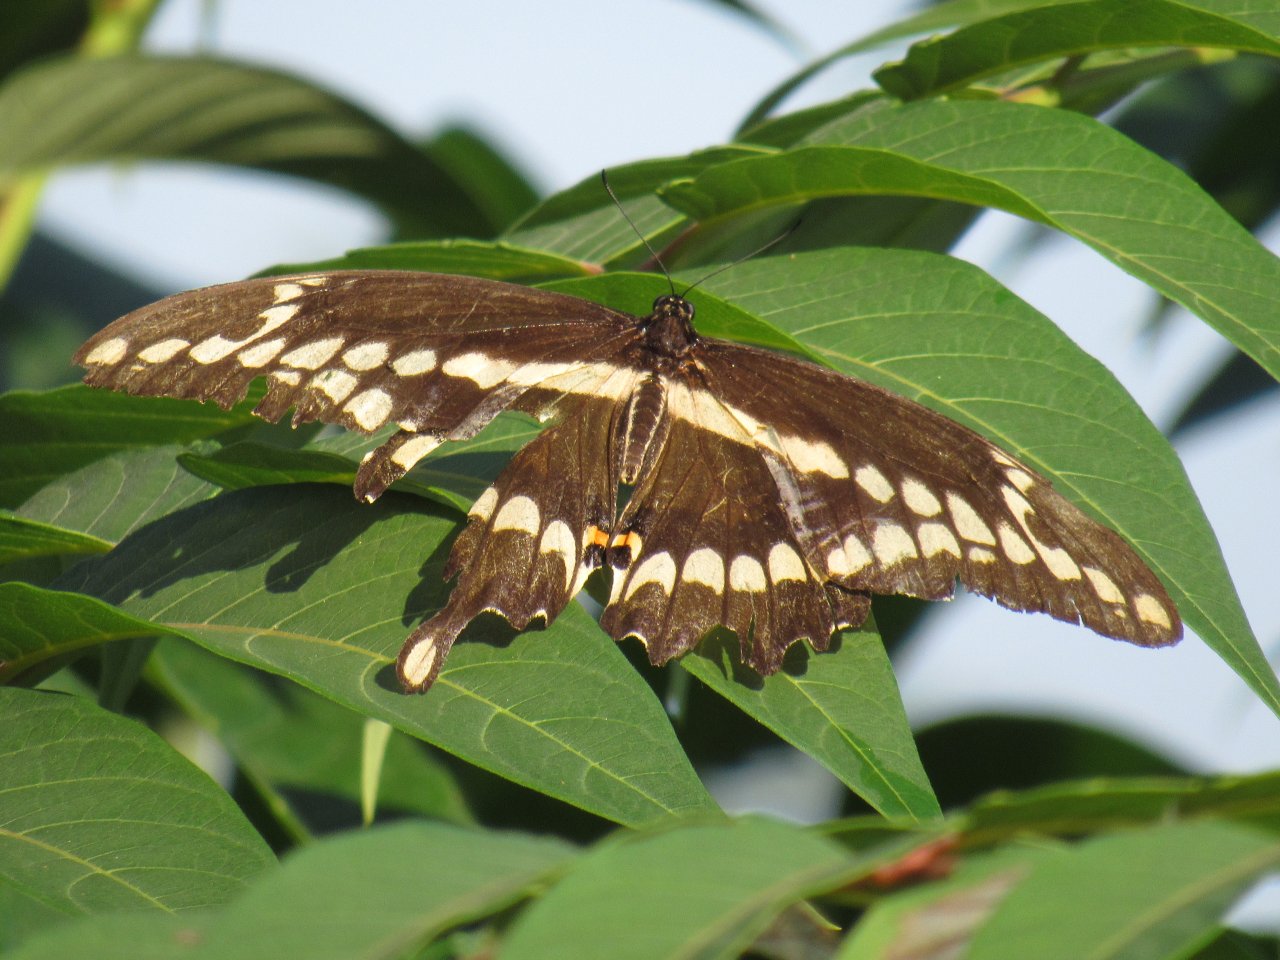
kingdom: Animalia
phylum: Arthropoda
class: Insecta
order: Lepidoptera
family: Papilionidae
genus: Papilio
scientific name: Papilio cresphontes
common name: Eastern Giant Swallowtail
